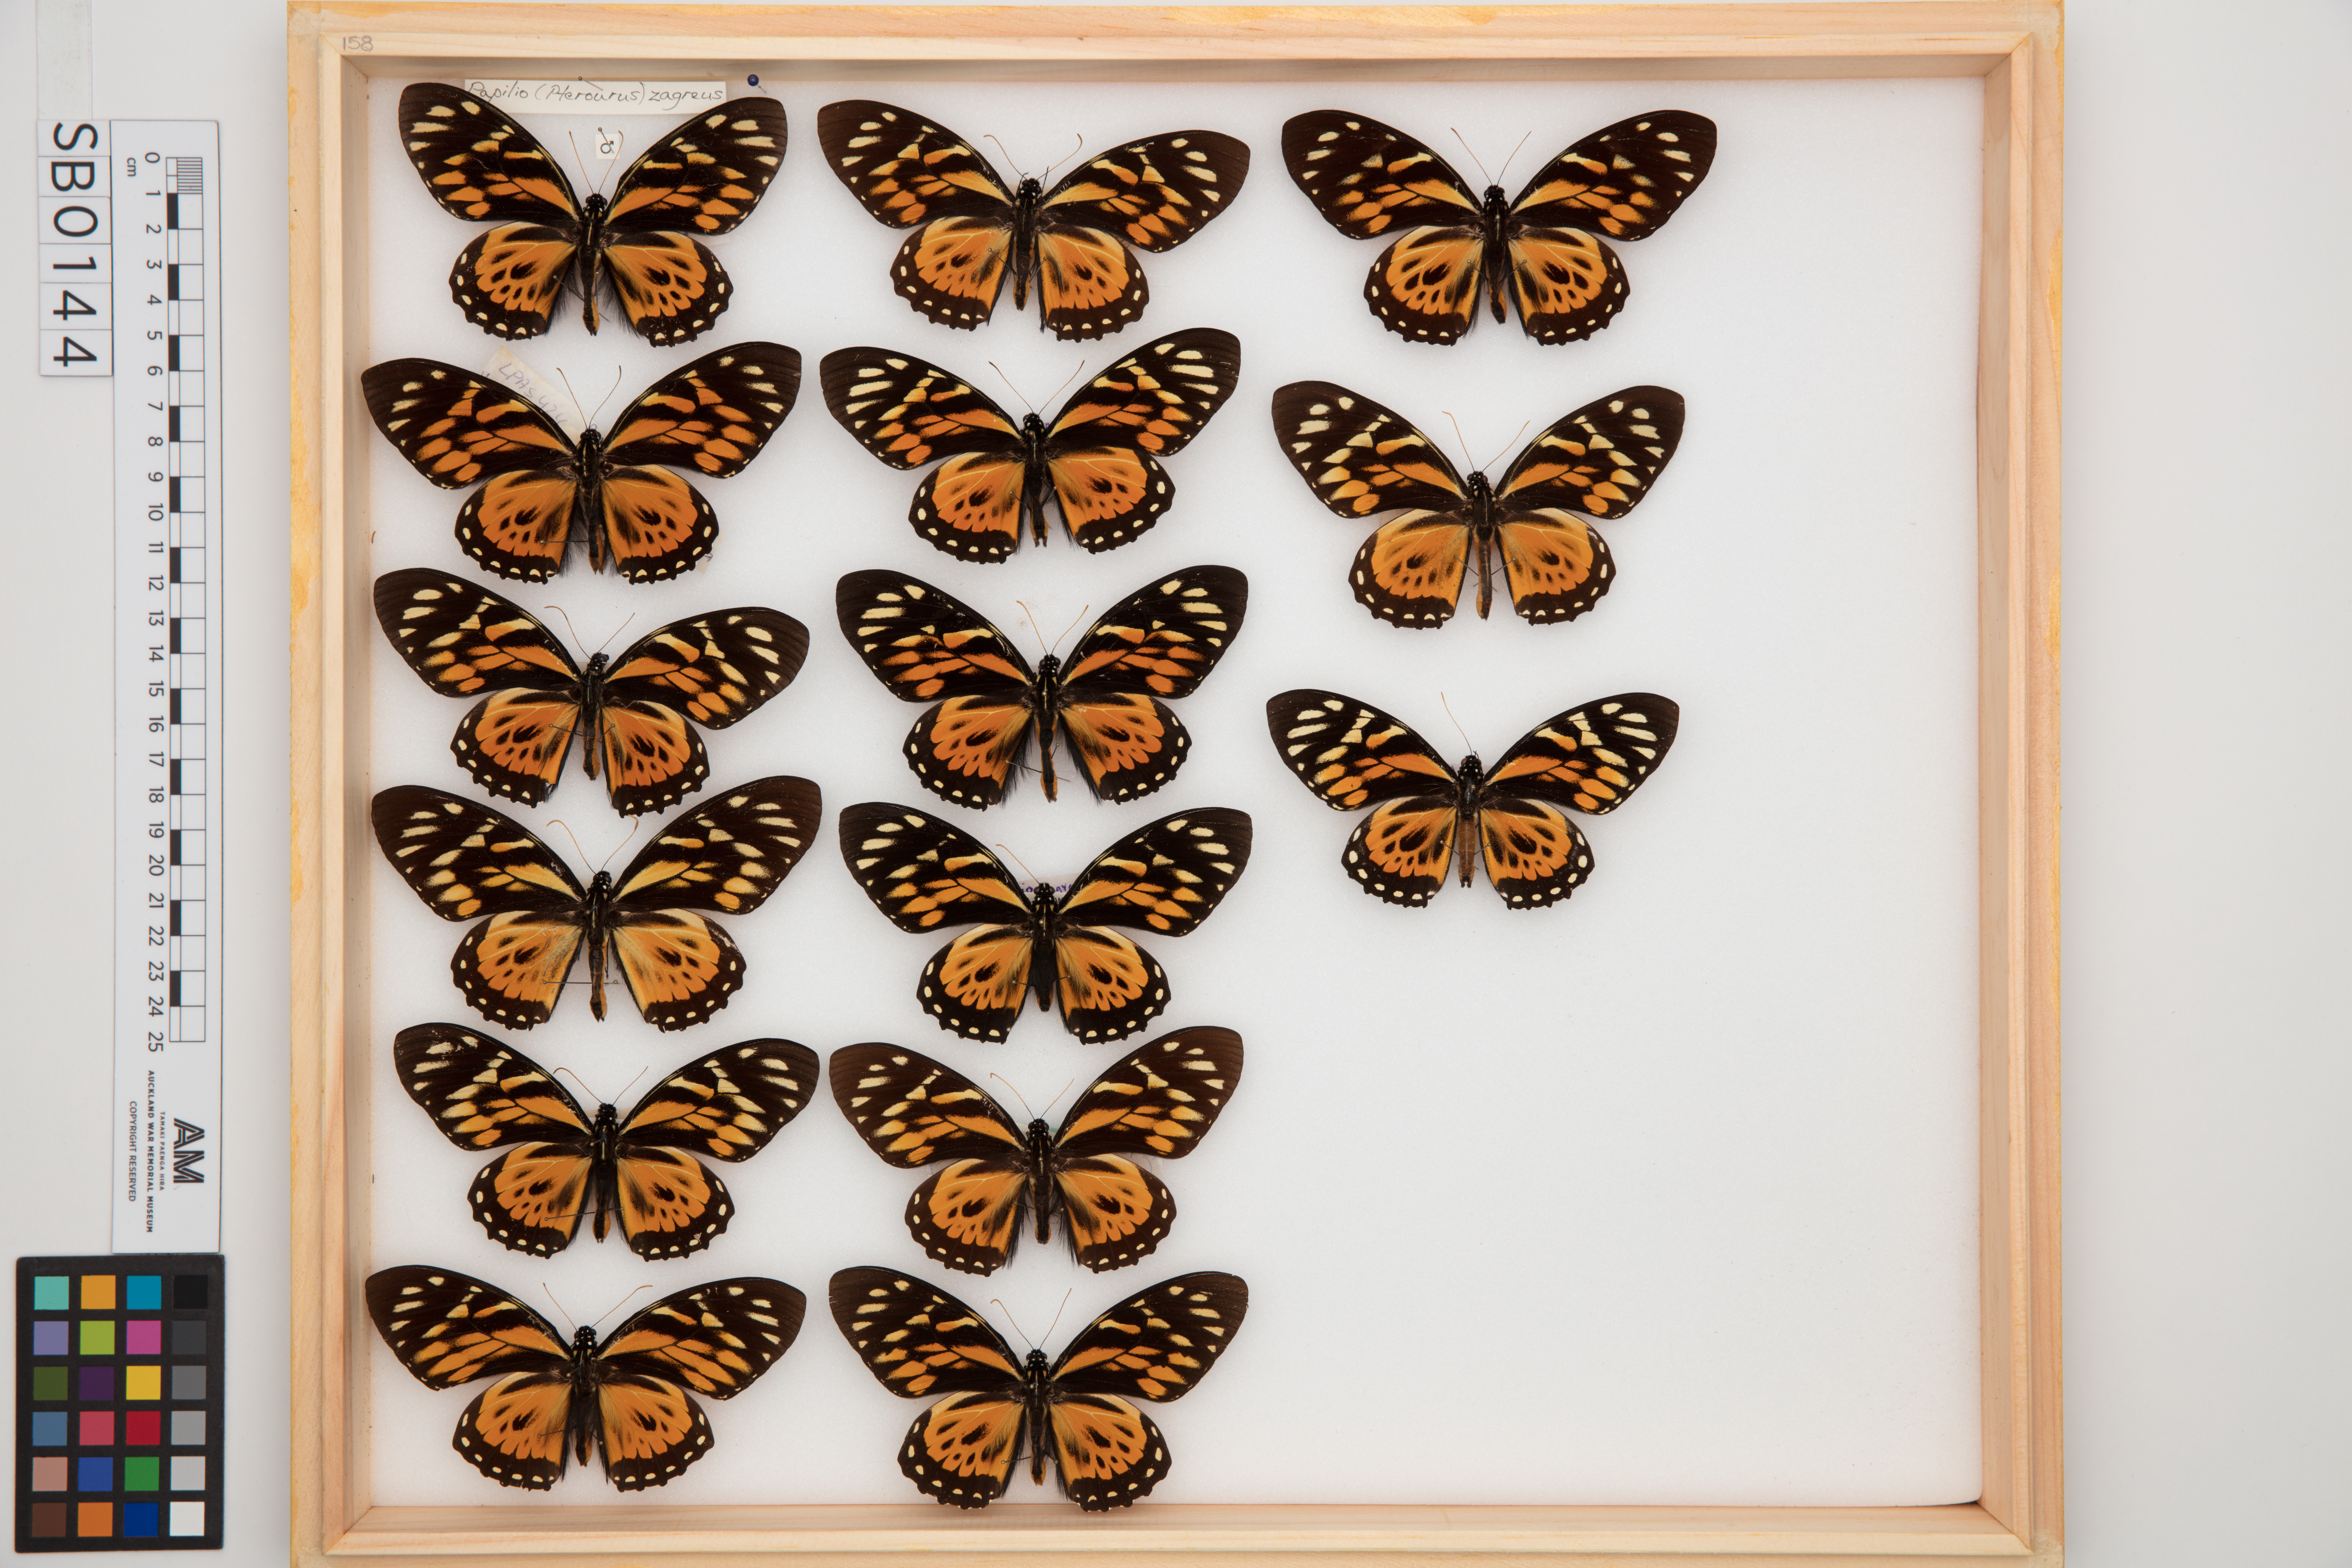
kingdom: Animalia
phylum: Arthropoda
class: Insecta
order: Lepidoptera
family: Papilionidae
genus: Papilio
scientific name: Papilio zagreus
